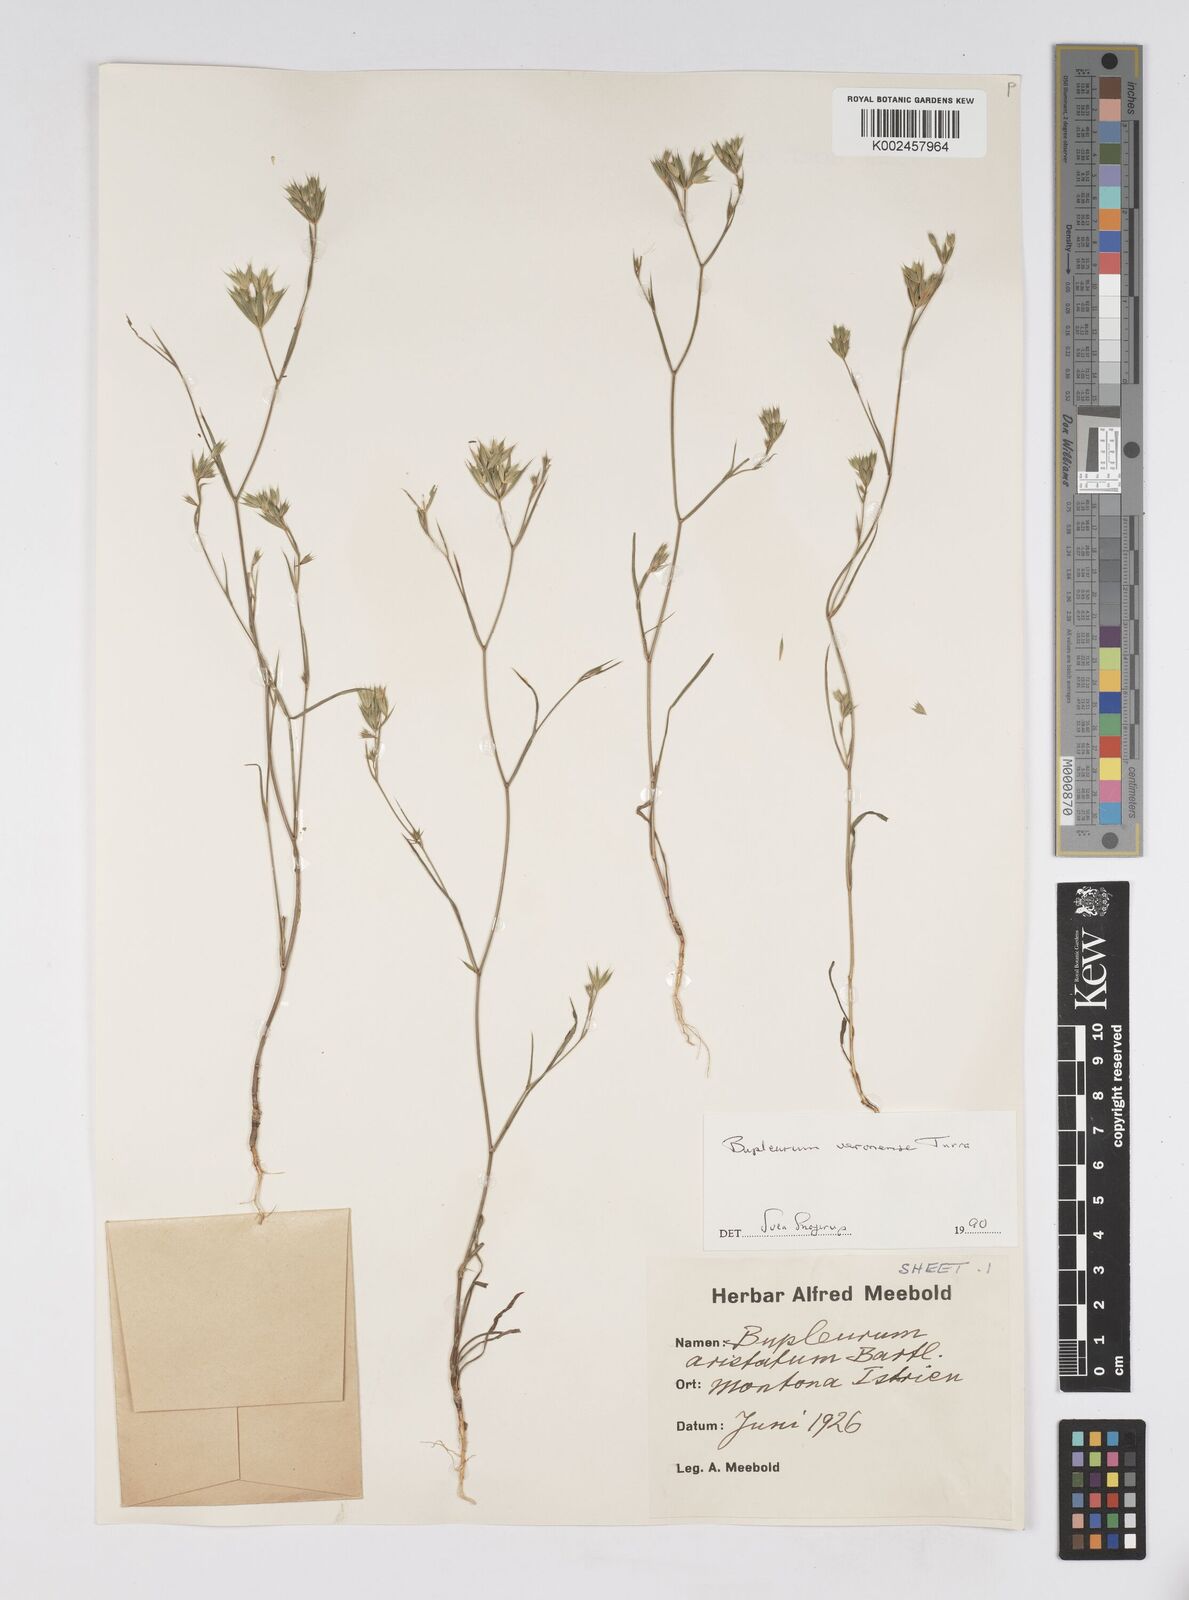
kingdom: Plantae
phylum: Tracheophyta
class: Magnoliopsida
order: Apiales
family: Apiaceae
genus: Bupleurum
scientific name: Bupleurum glumaceum
